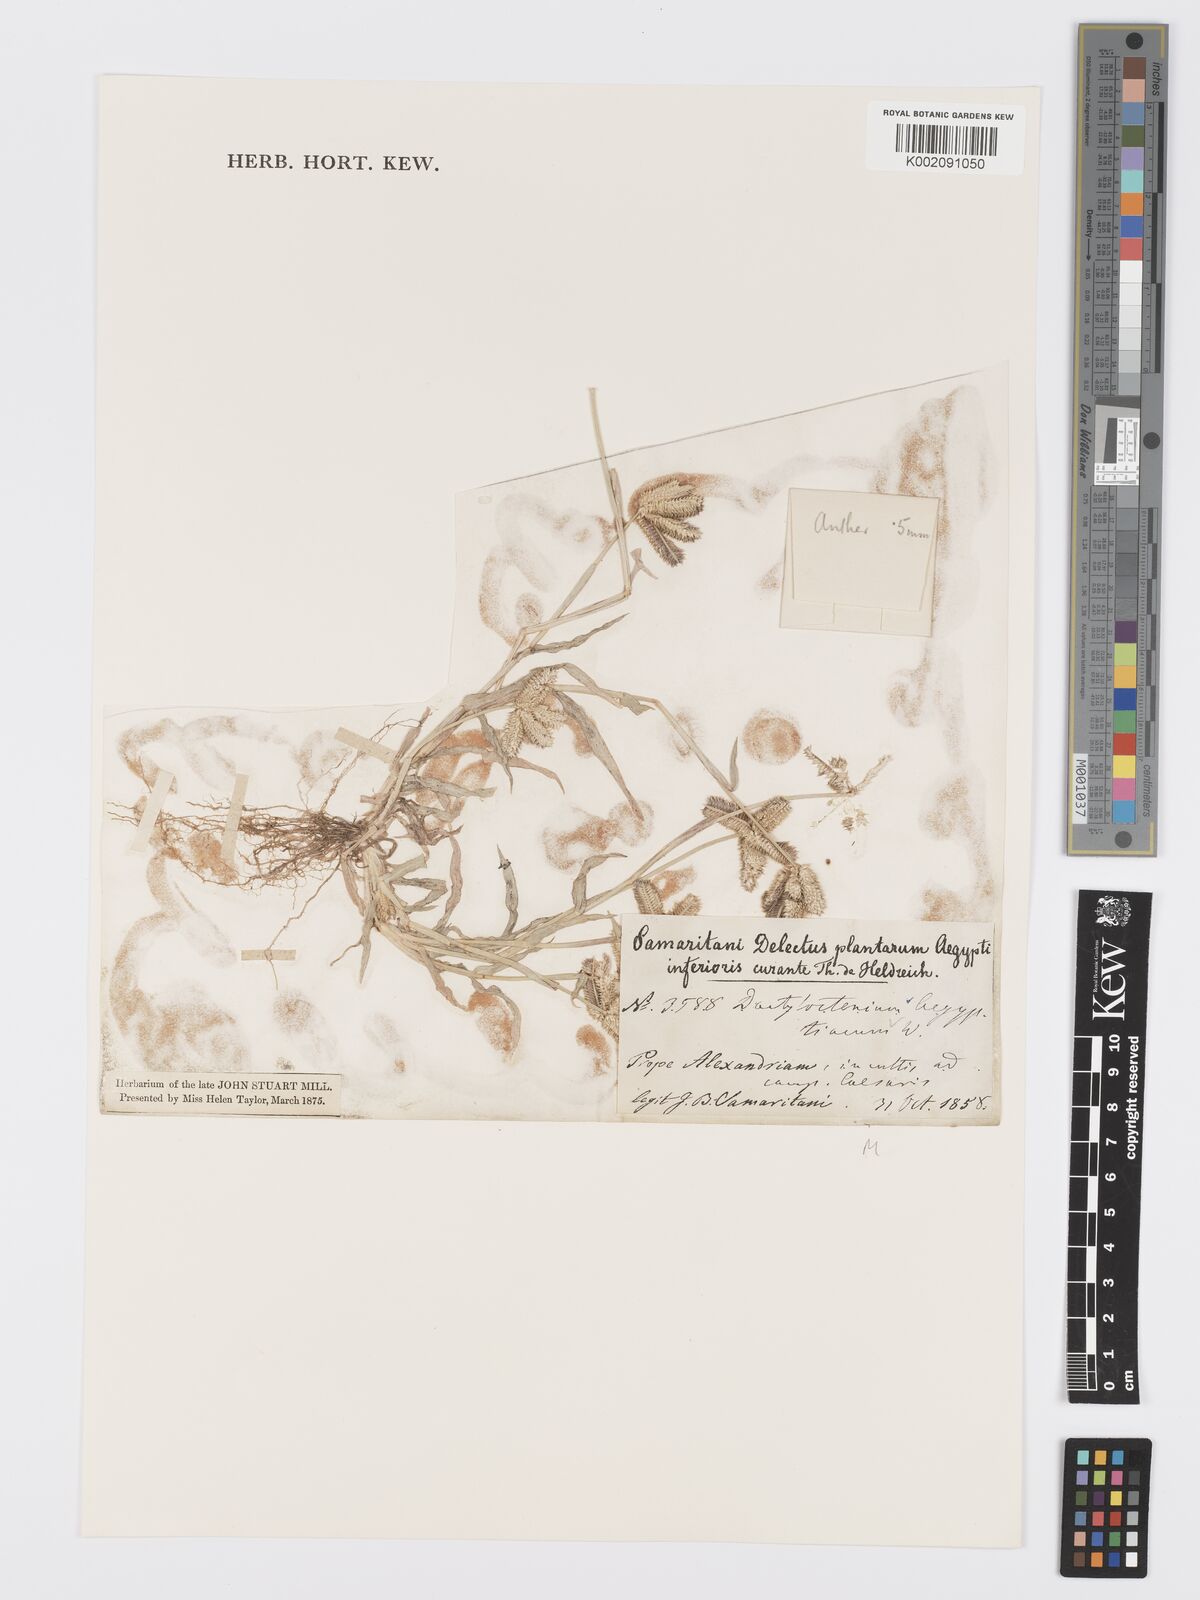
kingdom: Plantae
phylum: Tracheophyta
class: Liliopsida
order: Poales
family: Poaceae
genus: Dactyloctenium
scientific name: Dactyloctenium aegyptium
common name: Egyptian grass
